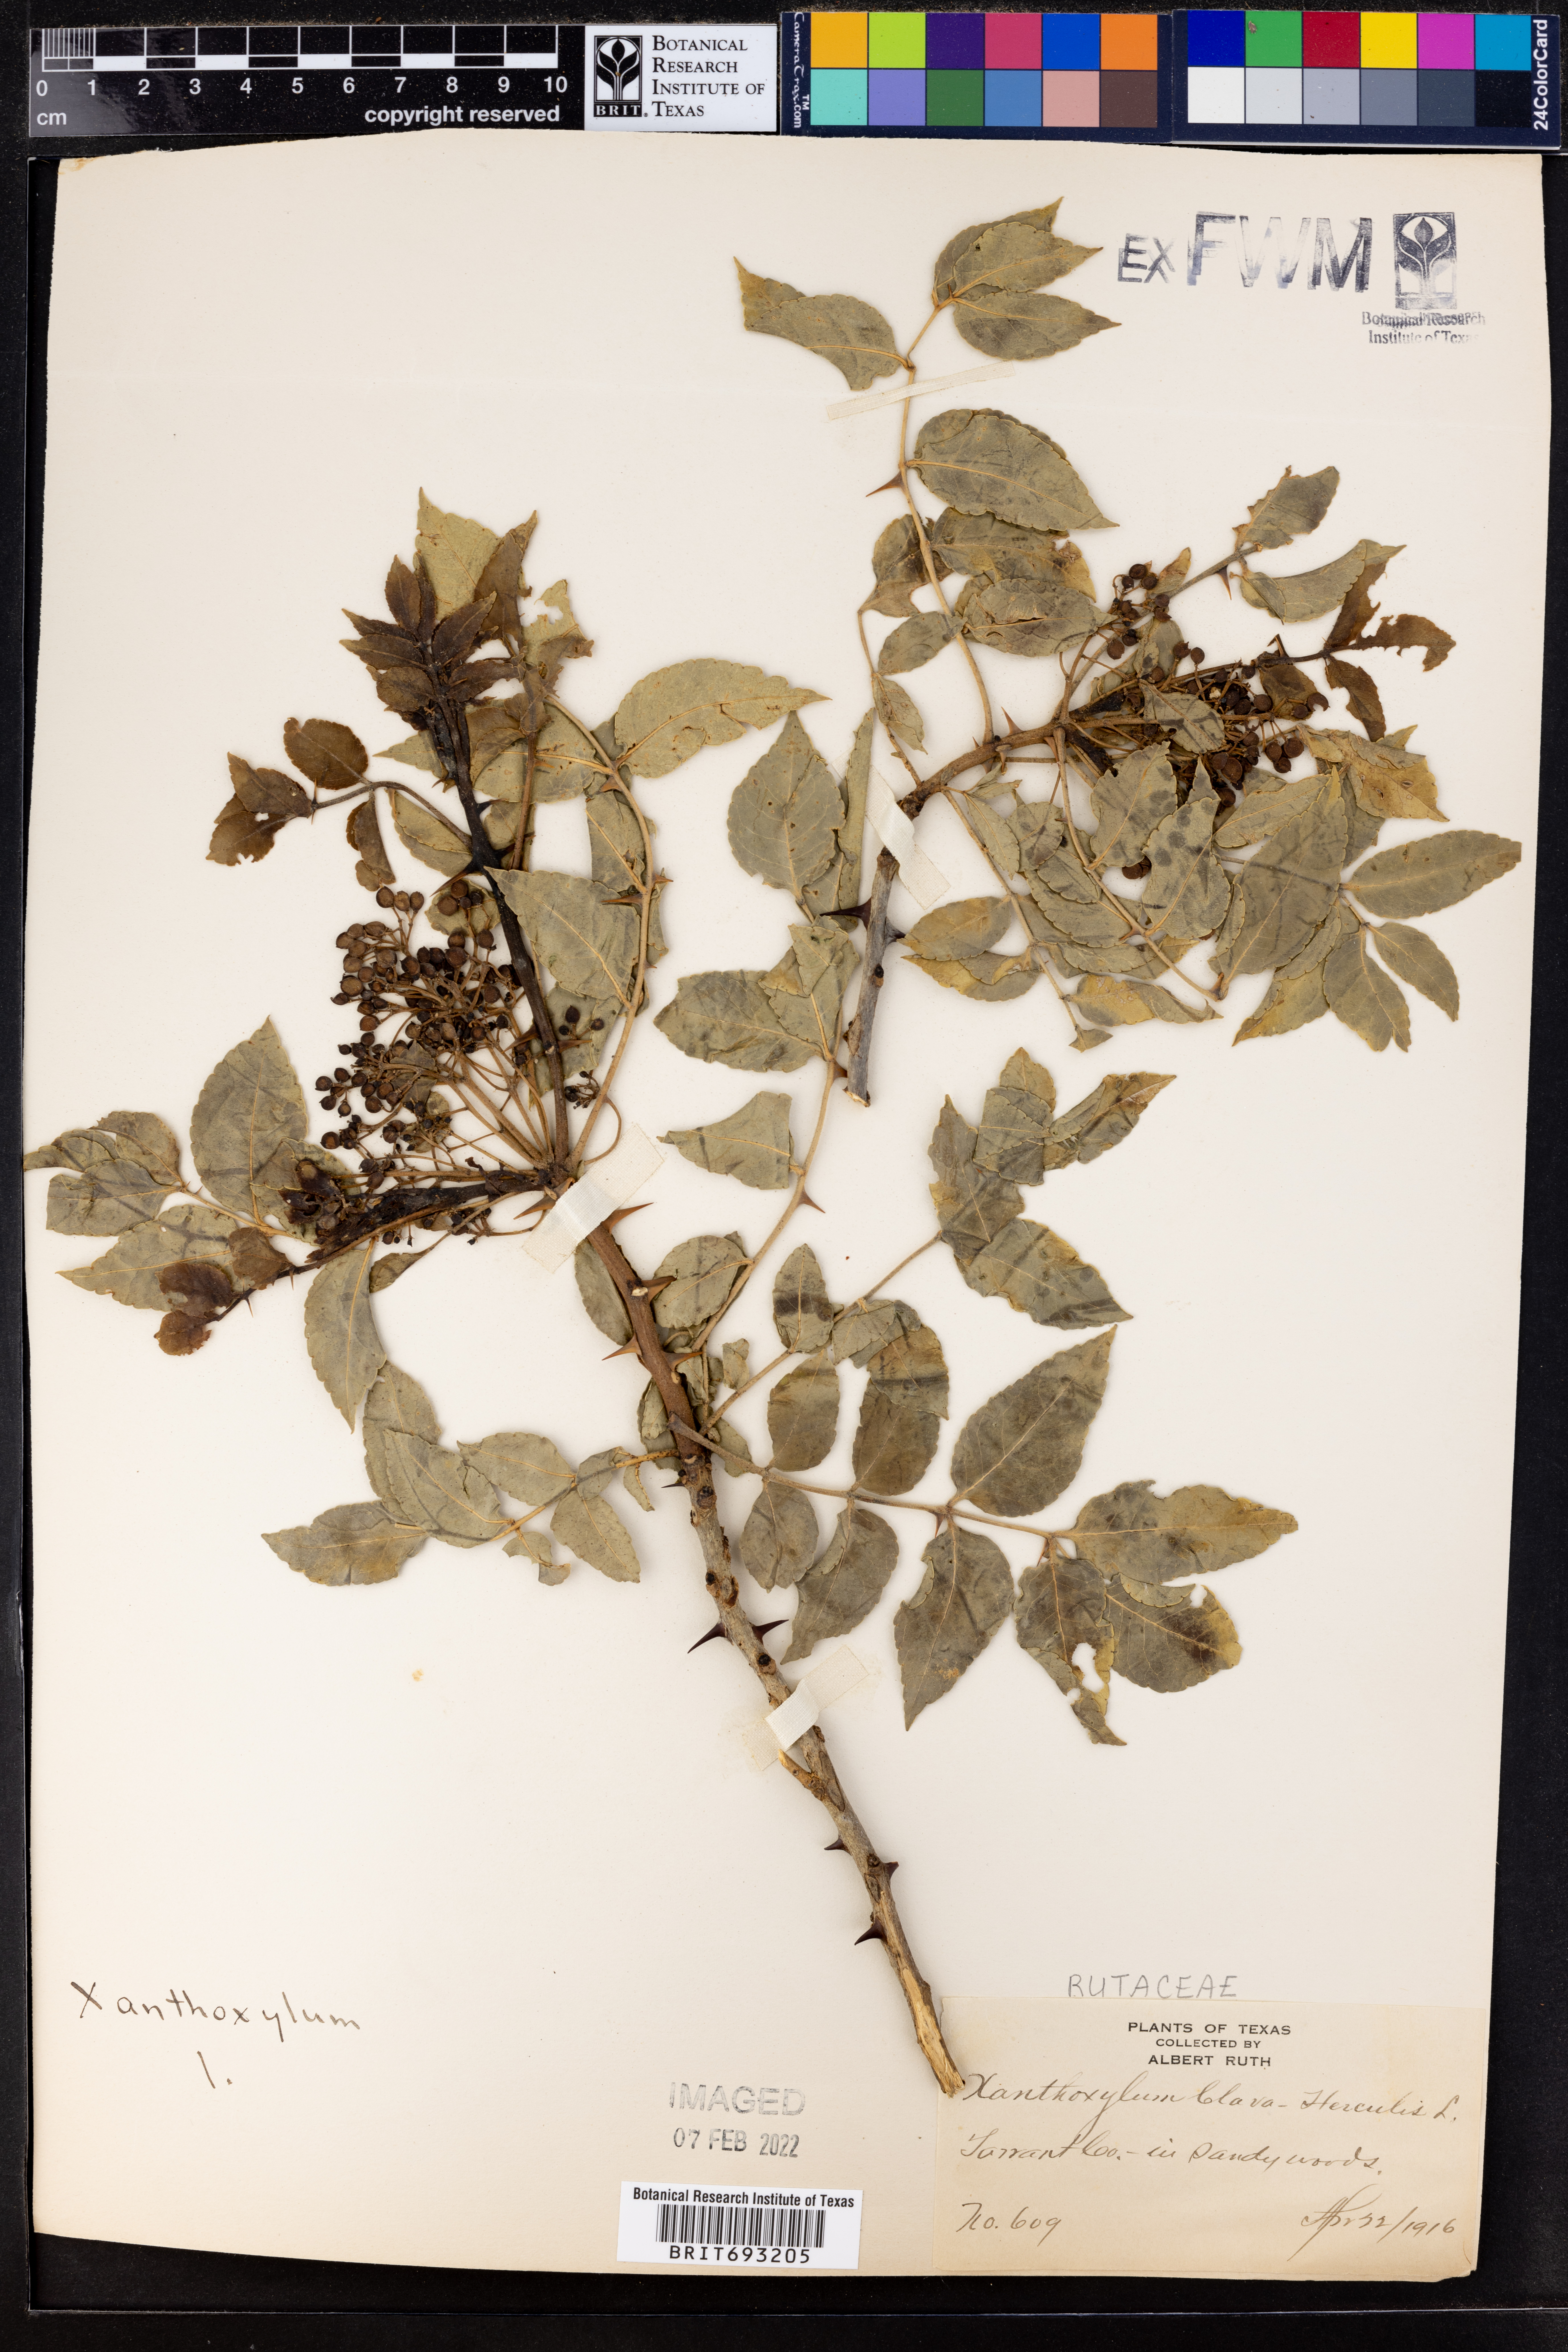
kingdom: Plantae
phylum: Tracheophyta
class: Magnoliopsida
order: Sapindales
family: Rutaceae
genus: Zanthoxylum
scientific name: Zanthoxylum avicennae
